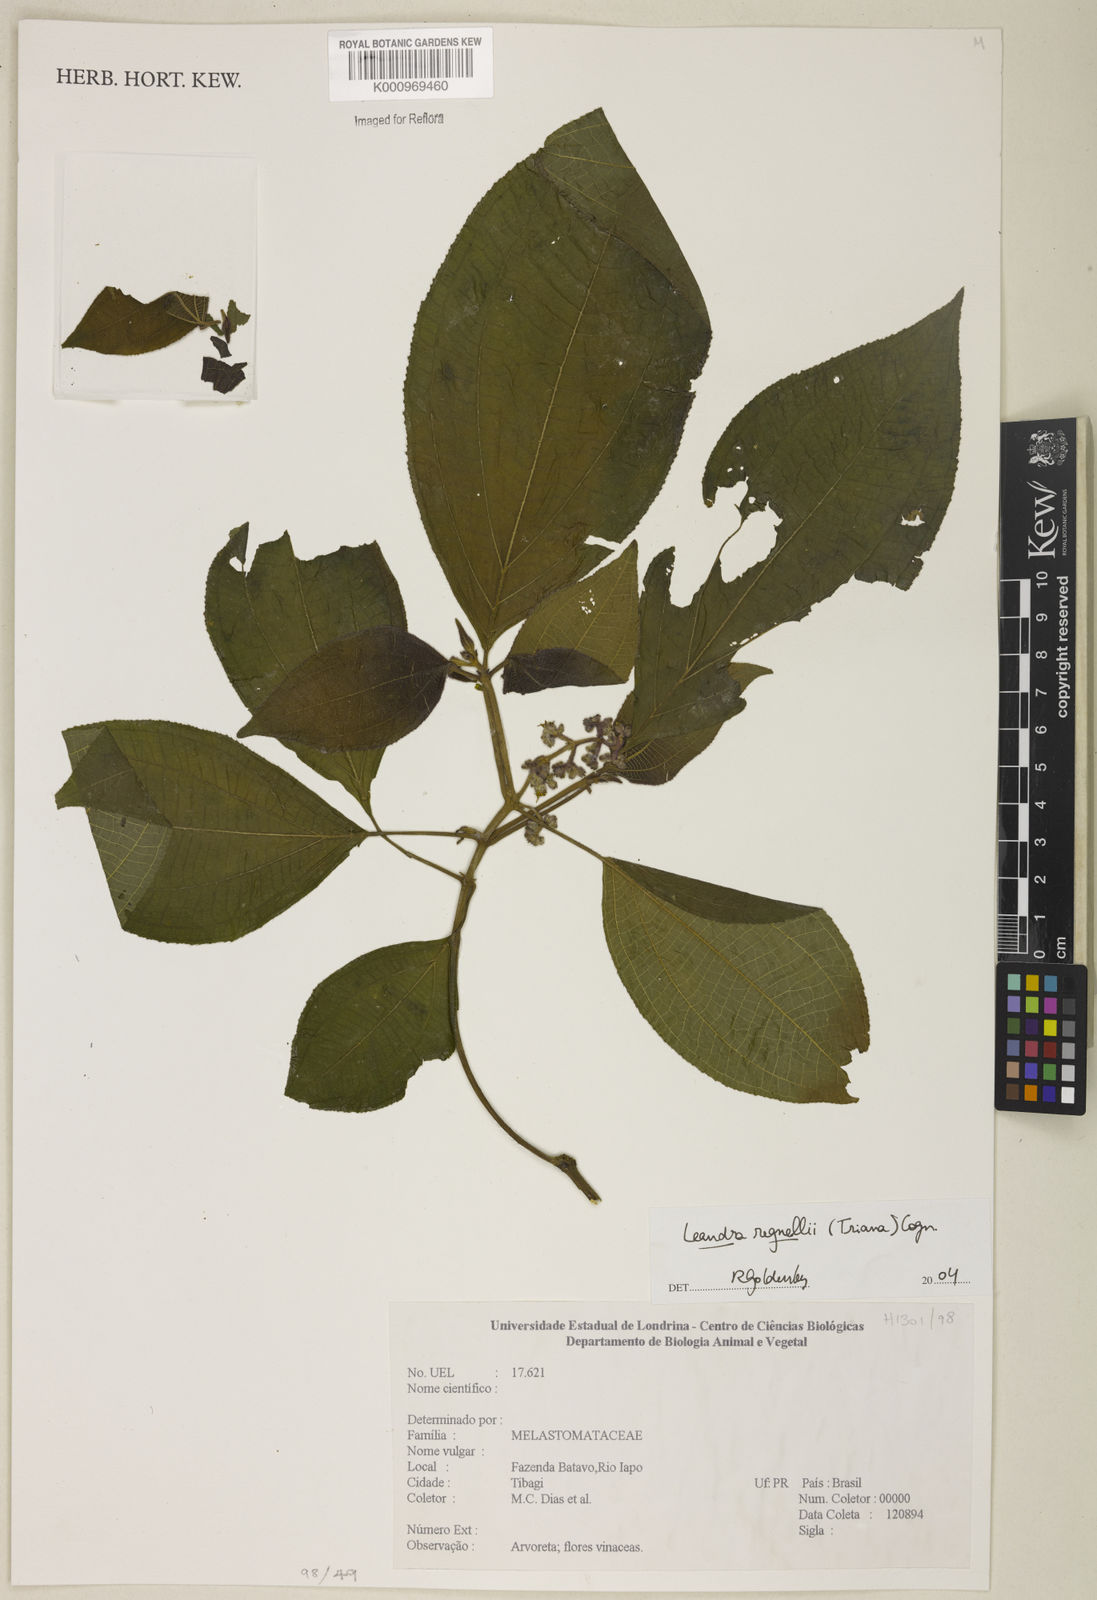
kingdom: Plantae
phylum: Tracheophyta
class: Magnoliopsida
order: Myrtales
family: Melastomataceae
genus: Miconia
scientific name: Miconia alterninervia
